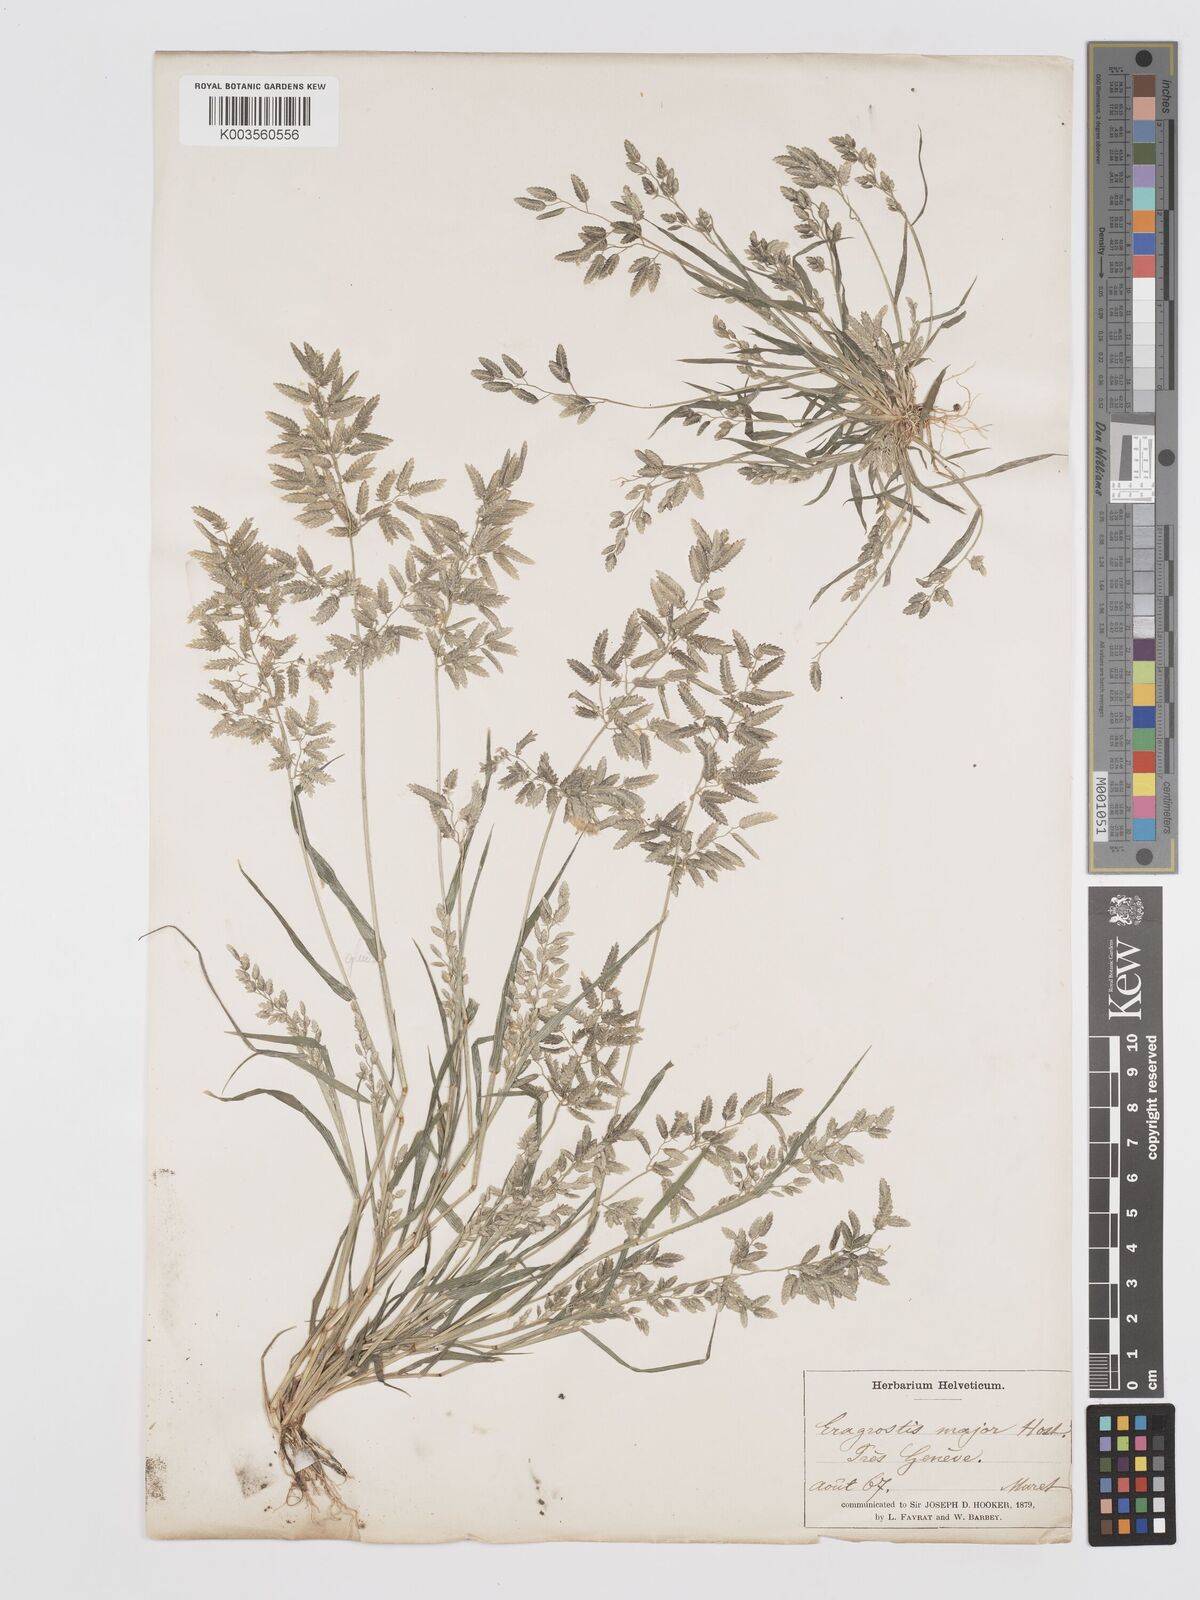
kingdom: Plantae
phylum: Tracheophyta
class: Liliopsida
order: Poales
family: Poaceae
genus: Eragrostis
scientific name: Eragrostis cilianensis
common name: Stinkgrass
